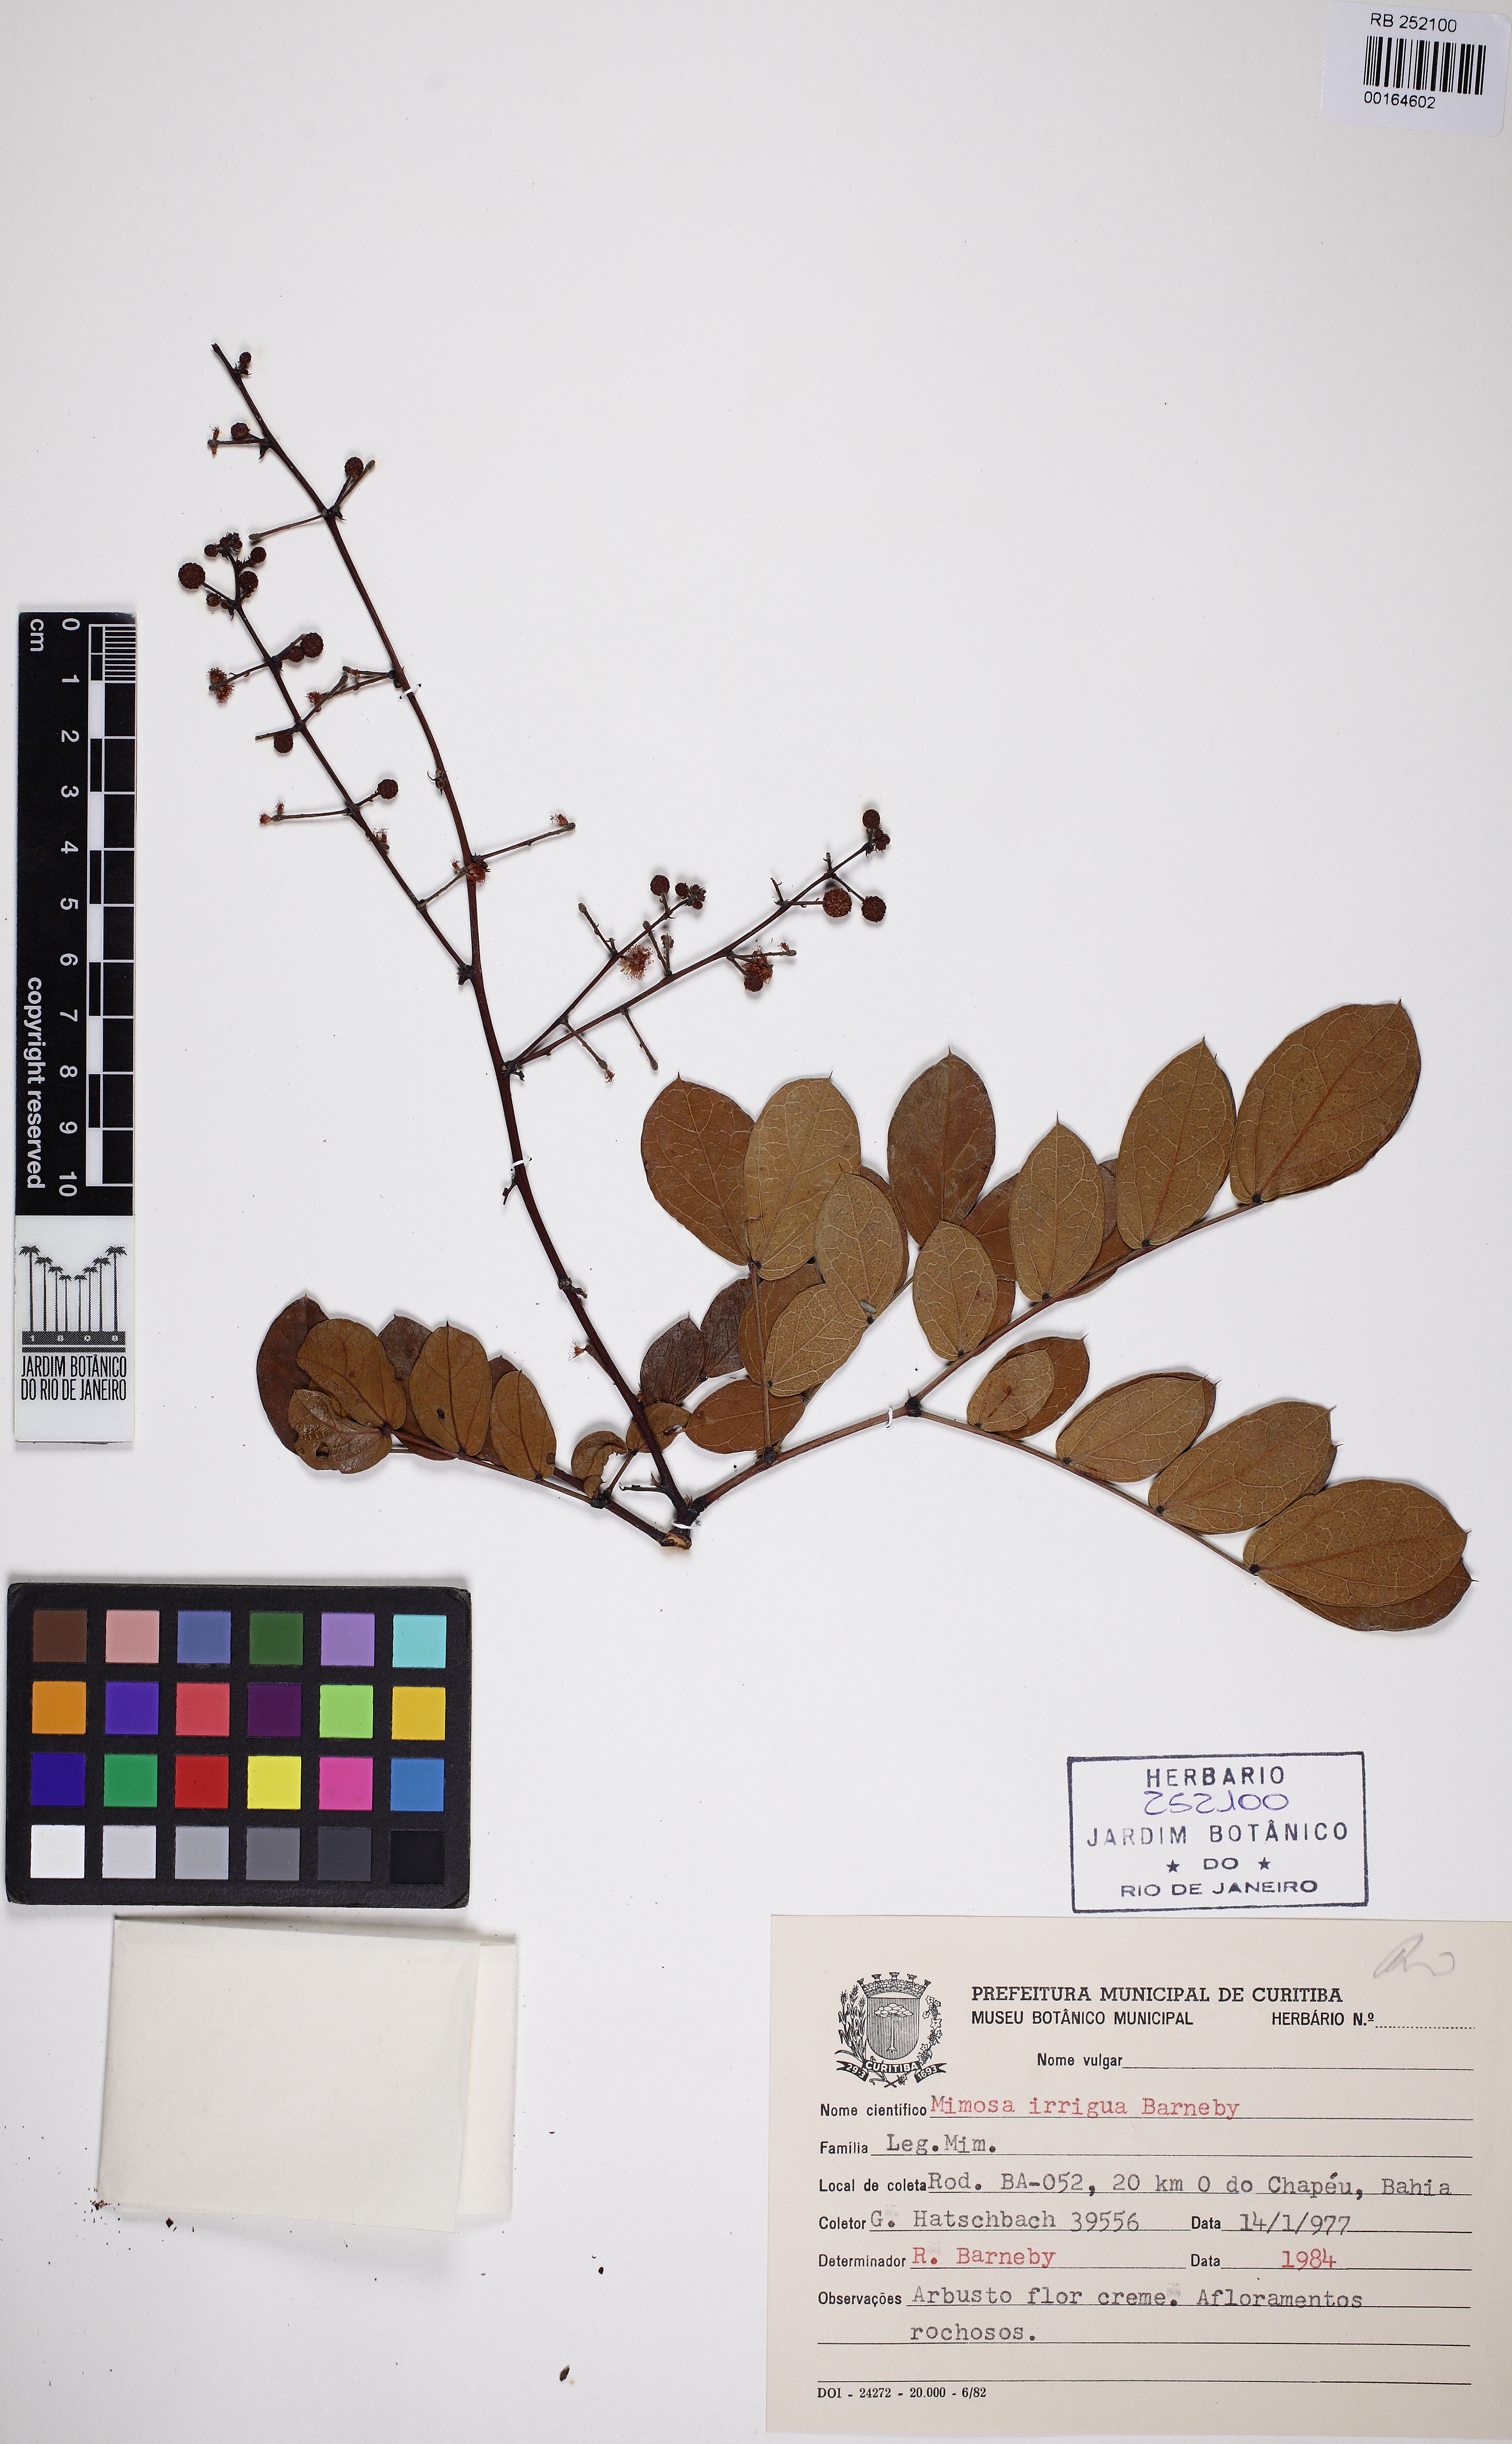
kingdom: Plantae
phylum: Tracheophyta
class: Magnoliopsida
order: Fabales
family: Fabaceae
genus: Mimosa
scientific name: Mimosa irrigua
